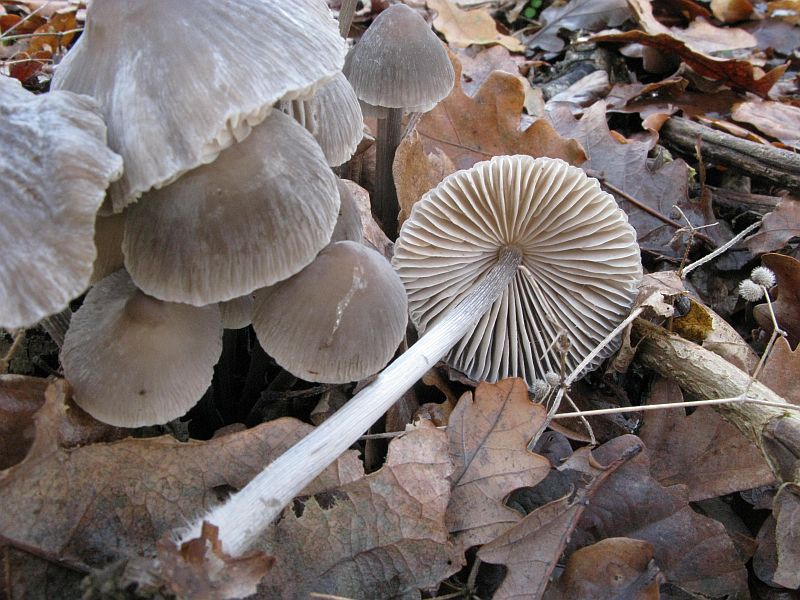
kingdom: Fungi
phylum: Basidiomycota
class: Agaricomycetes
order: Agaricales
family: Mycenaceae
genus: Mycena
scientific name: Mycena polygramma
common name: mangestribet huesvamp
